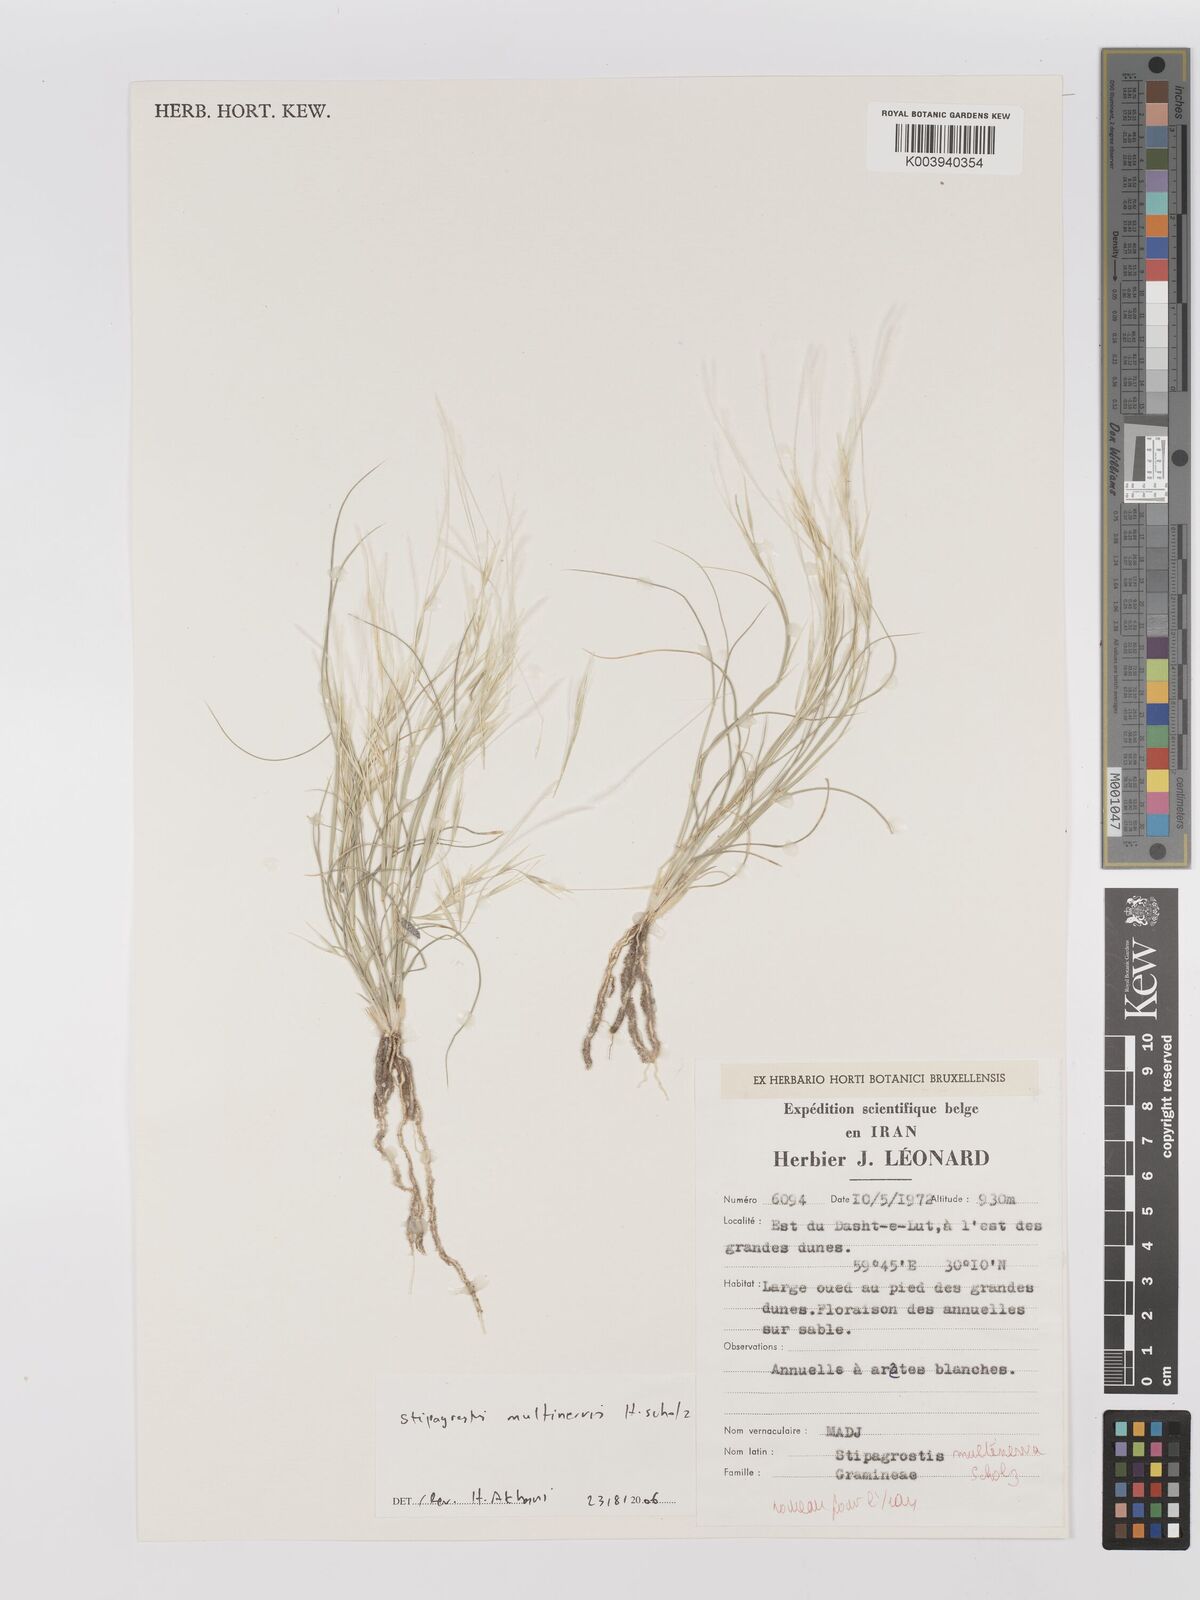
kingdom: Plantae
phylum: Tracheophyta
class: Liliopsida
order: Poales
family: Poaceae
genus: Stipagrostis
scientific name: Stipagrostis multinerva
